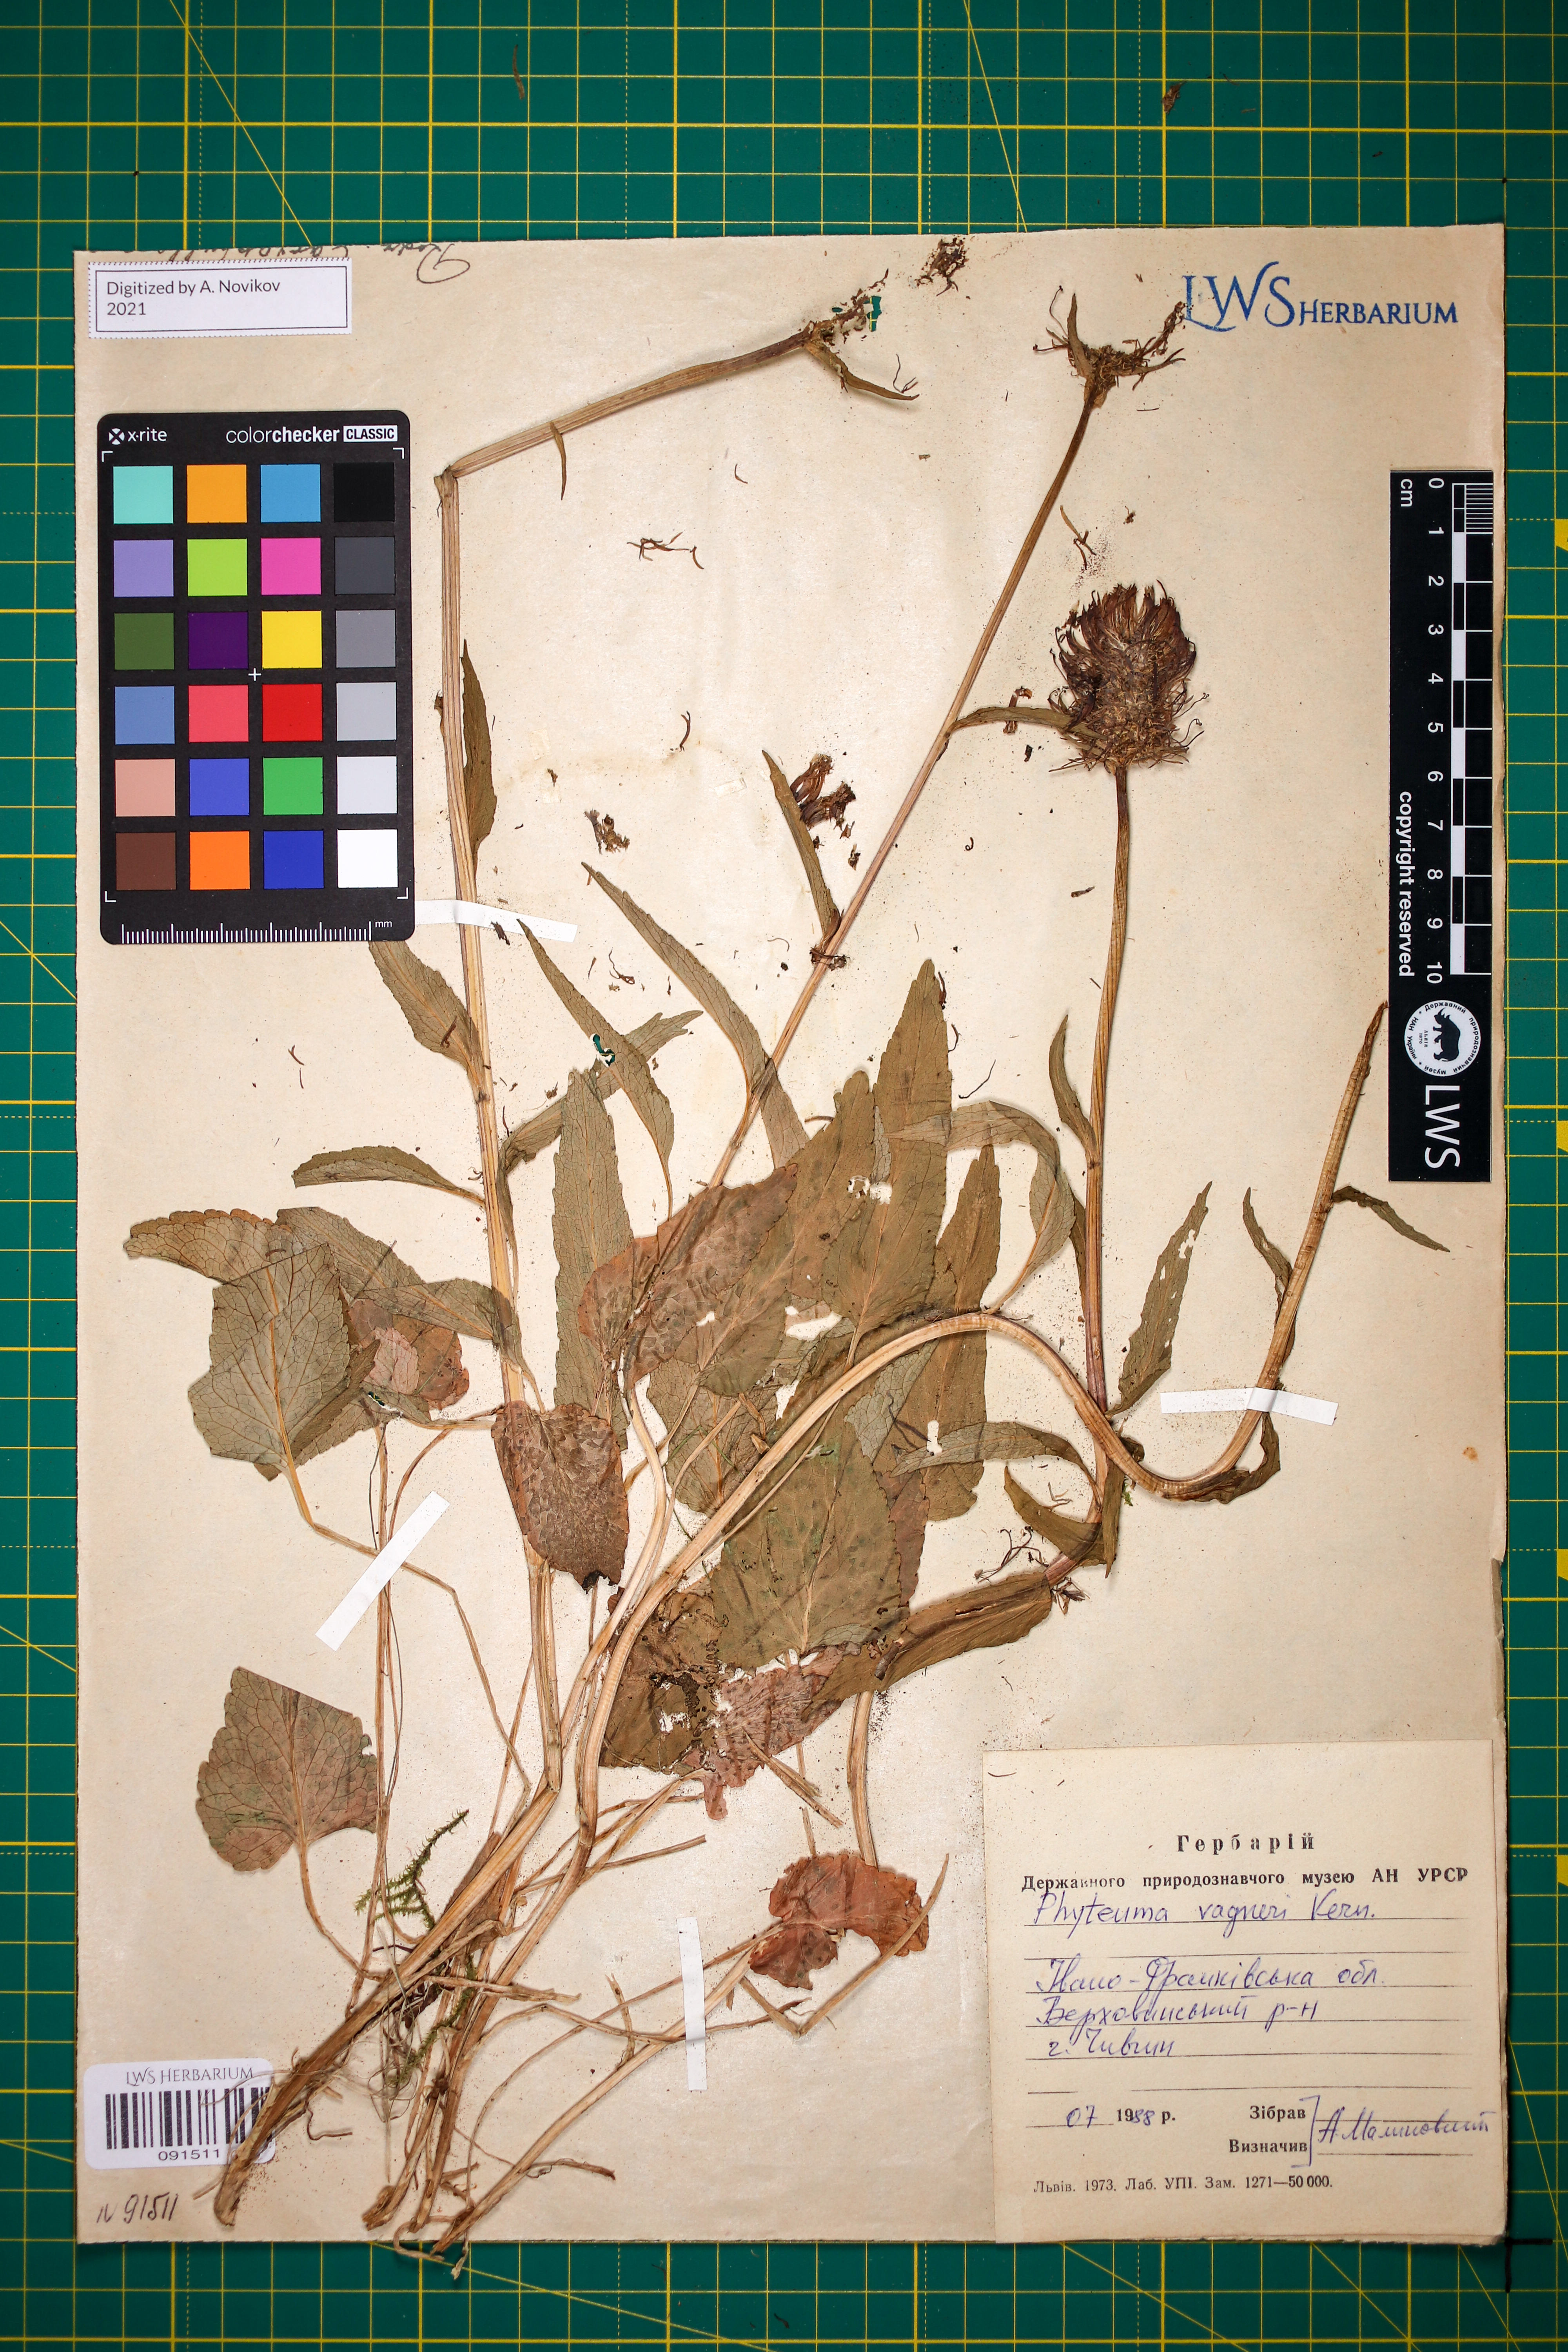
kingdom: Plantae
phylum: Tracheophyta
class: Magnoliopsida
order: Asterales
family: Campanulaceae
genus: Phyteuma
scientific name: Phyteuma vagneri
